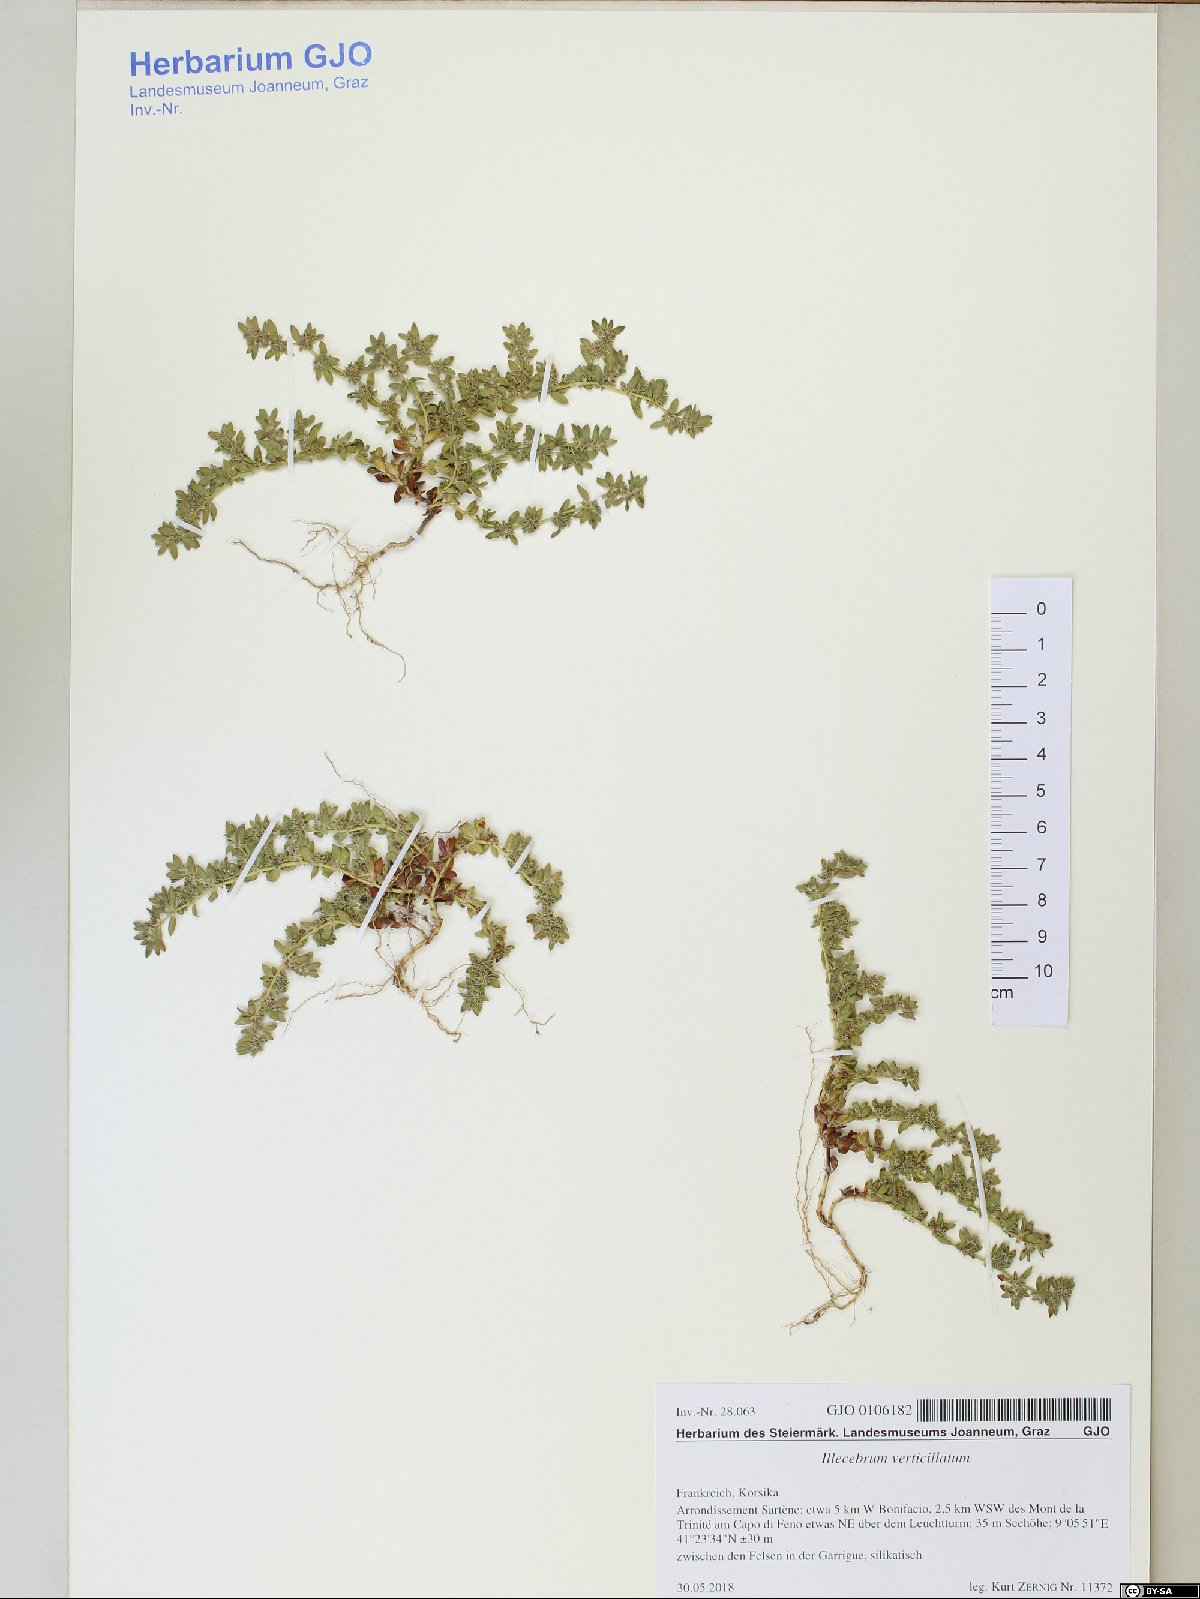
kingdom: Plantae
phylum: Tracheophyta
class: Magnoliopsida
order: Caryophyllales
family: Caryophyllaceae
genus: Illecebrum
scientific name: Illecebrum verticillatum
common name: Coral necklace
